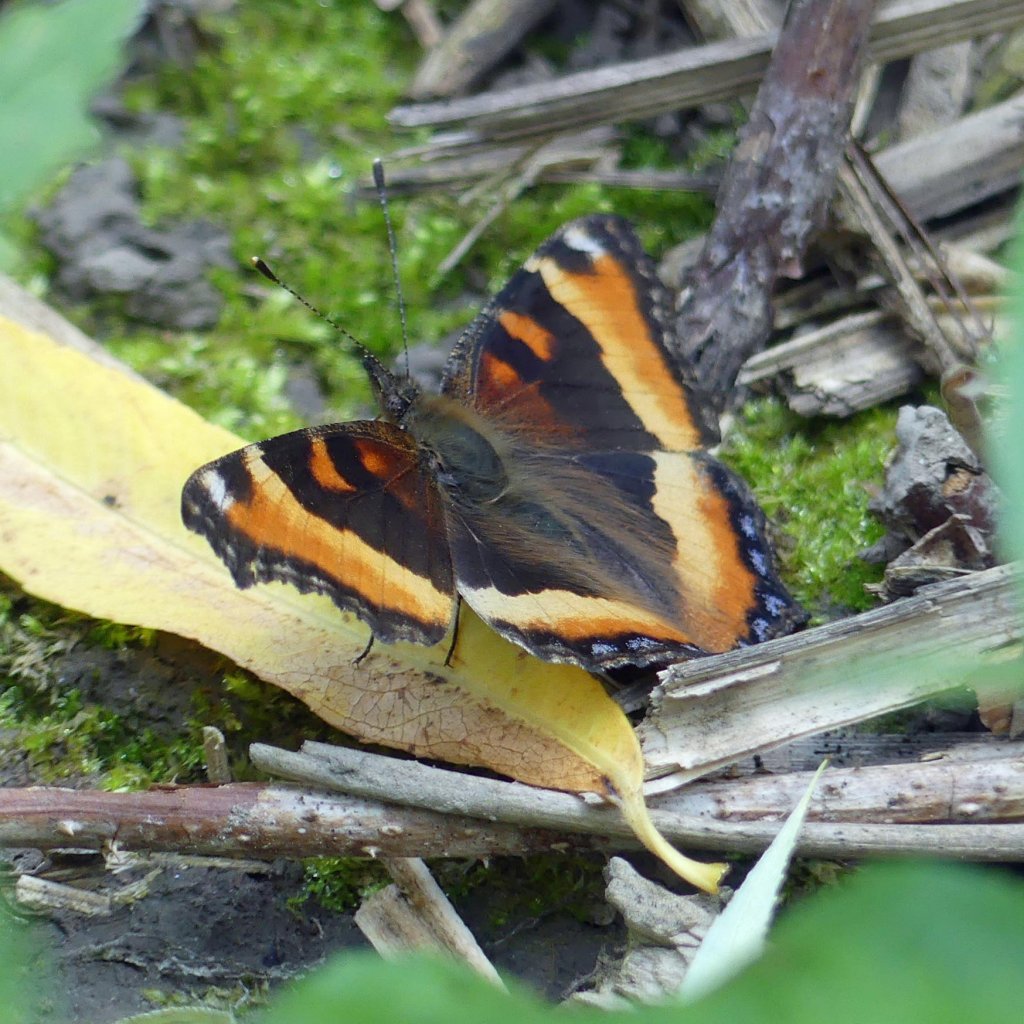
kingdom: Animalia
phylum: Arthropoda
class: Insecta
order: Lepidoptera
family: Nymphalidae
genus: Aglais
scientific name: Aglais milberti
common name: Milbert's Tortoiseshell
